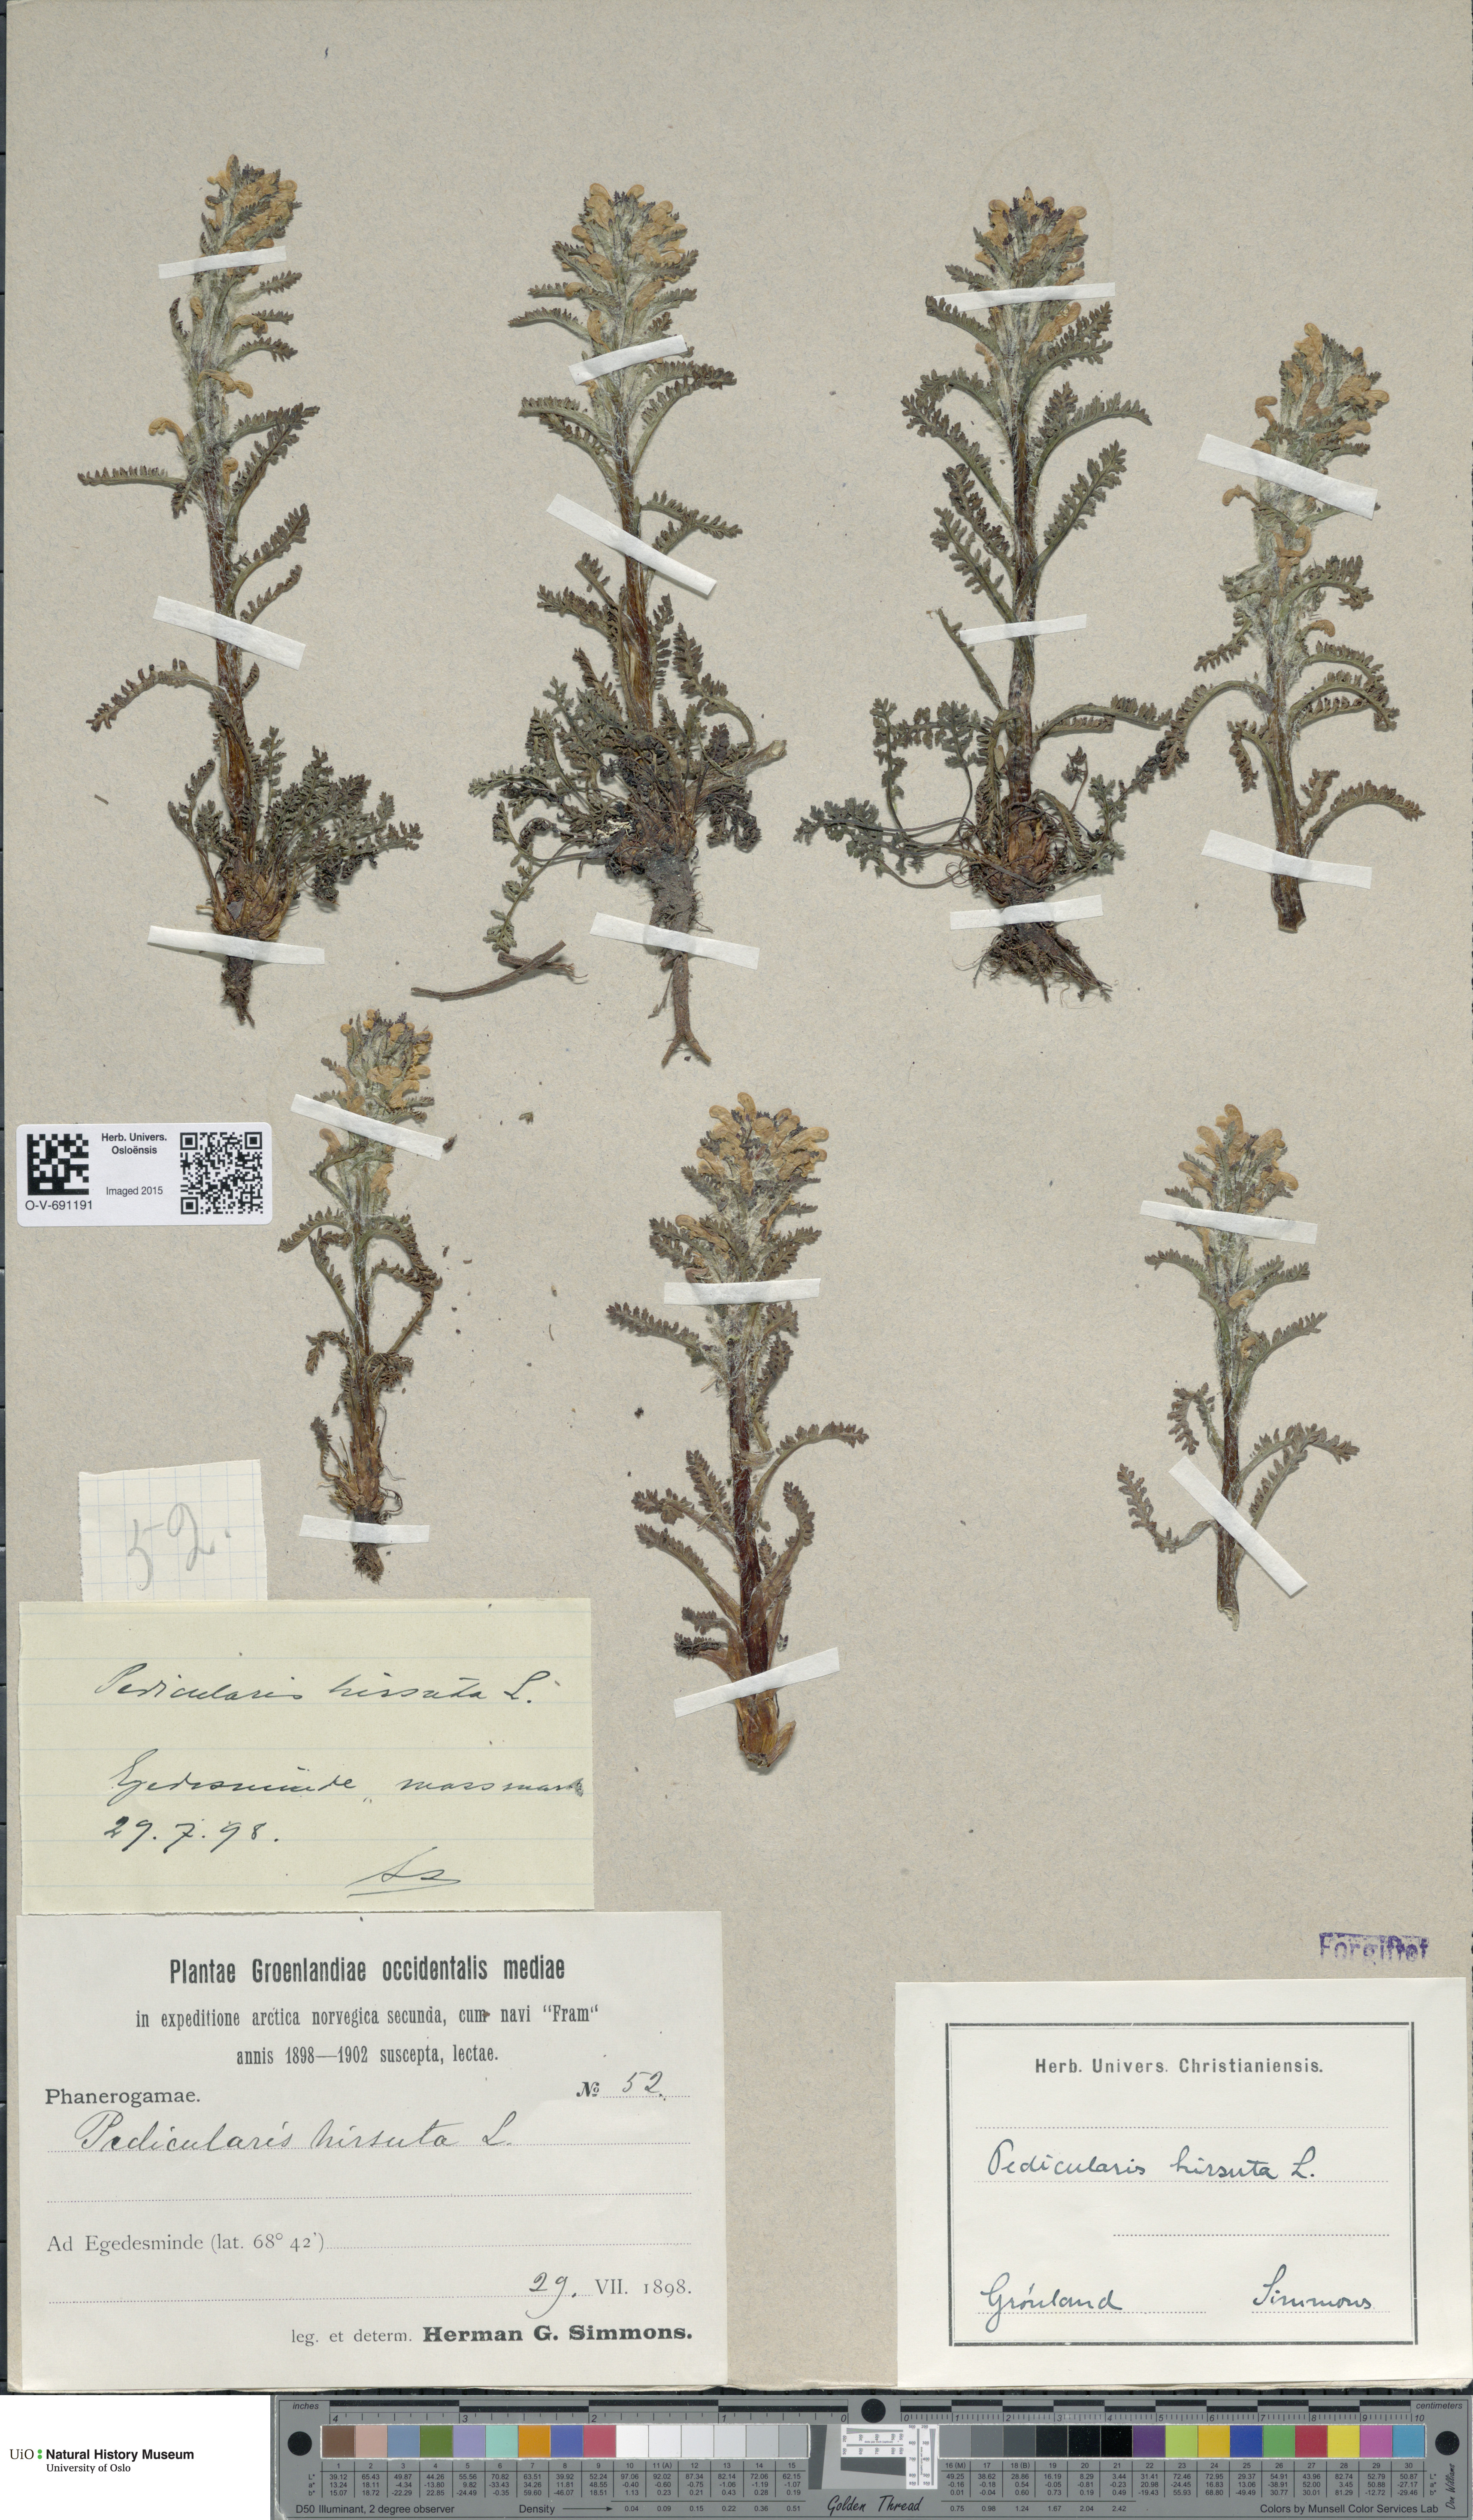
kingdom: Plantae
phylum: Tracheophyta
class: Magnoliopsida
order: Lamiales
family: Orobanchaceae
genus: Pedicularis
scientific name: Pedicularis hirsuta
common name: Hairy lousewort
